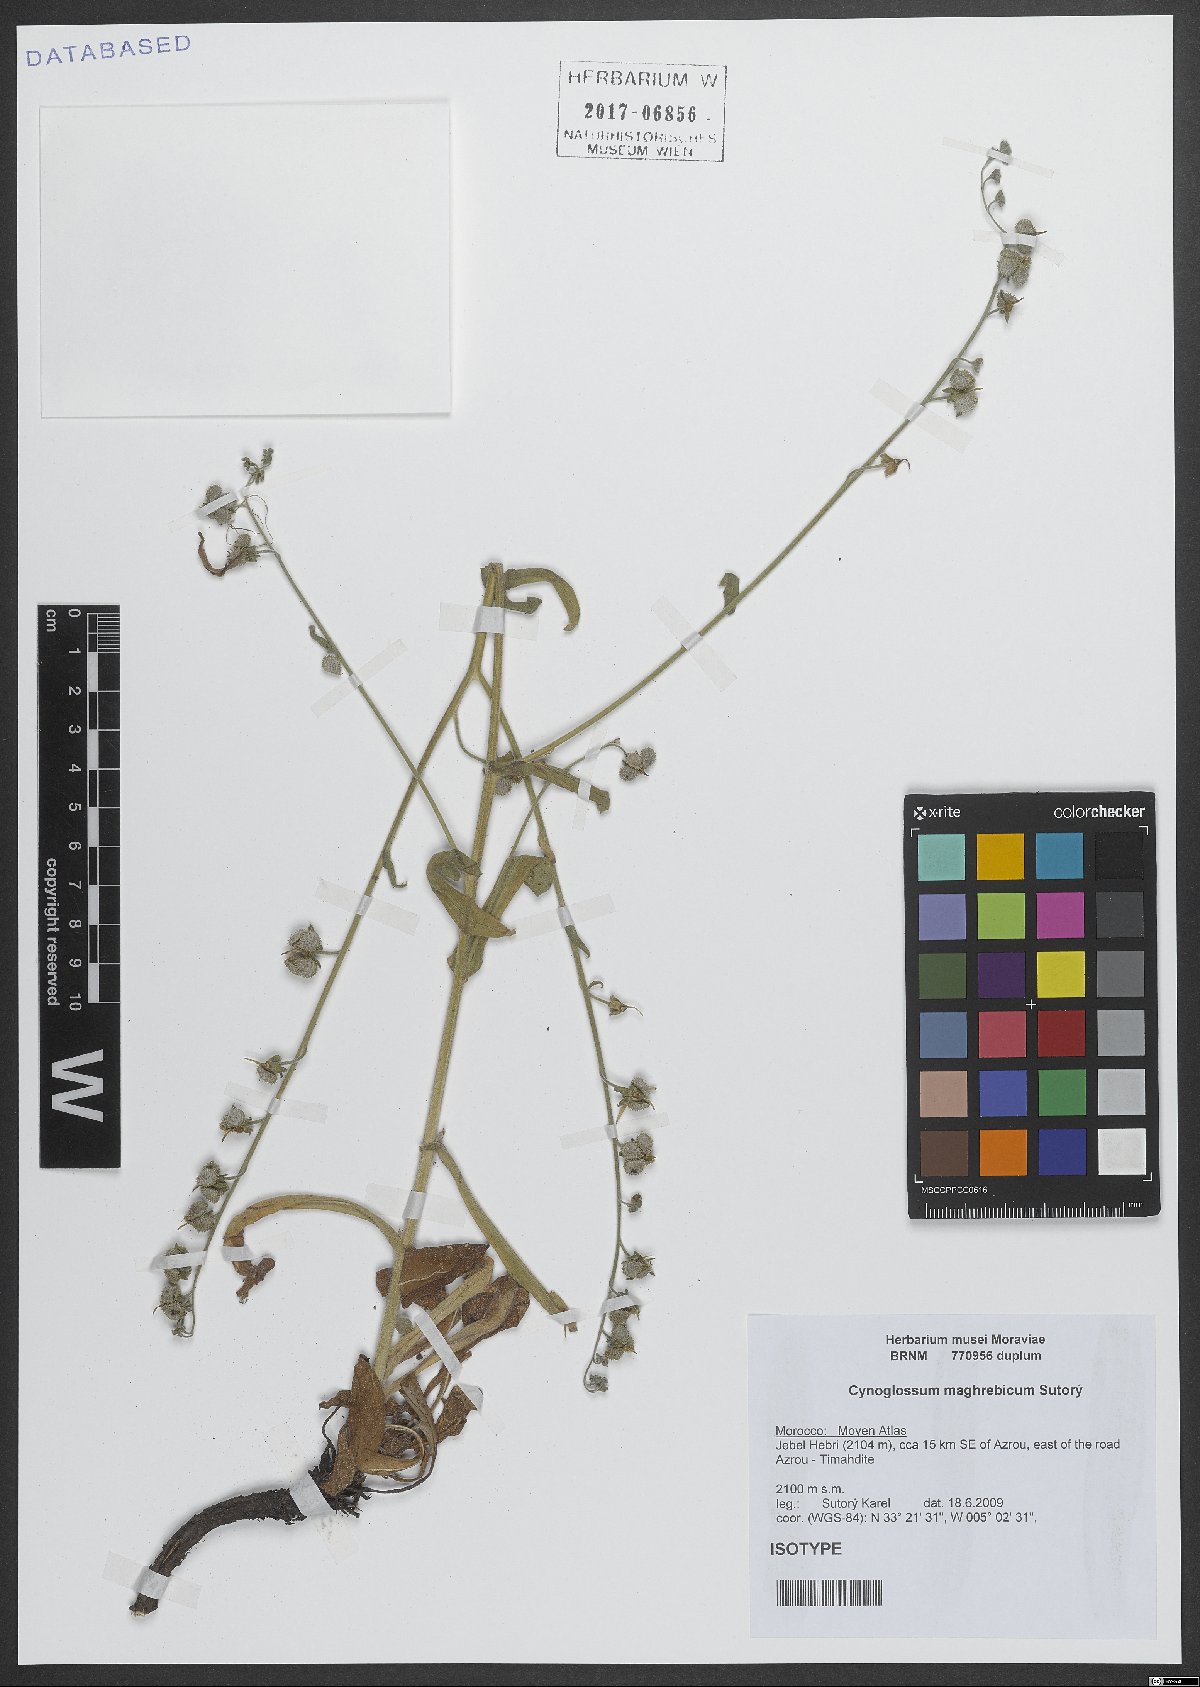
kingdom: Plantae
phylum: Tracheophyta
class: Magnoliopsida
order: Boraginales
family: Boraginaceae
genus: Cynoglossum
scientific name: Cynoglossum maghrebicum
